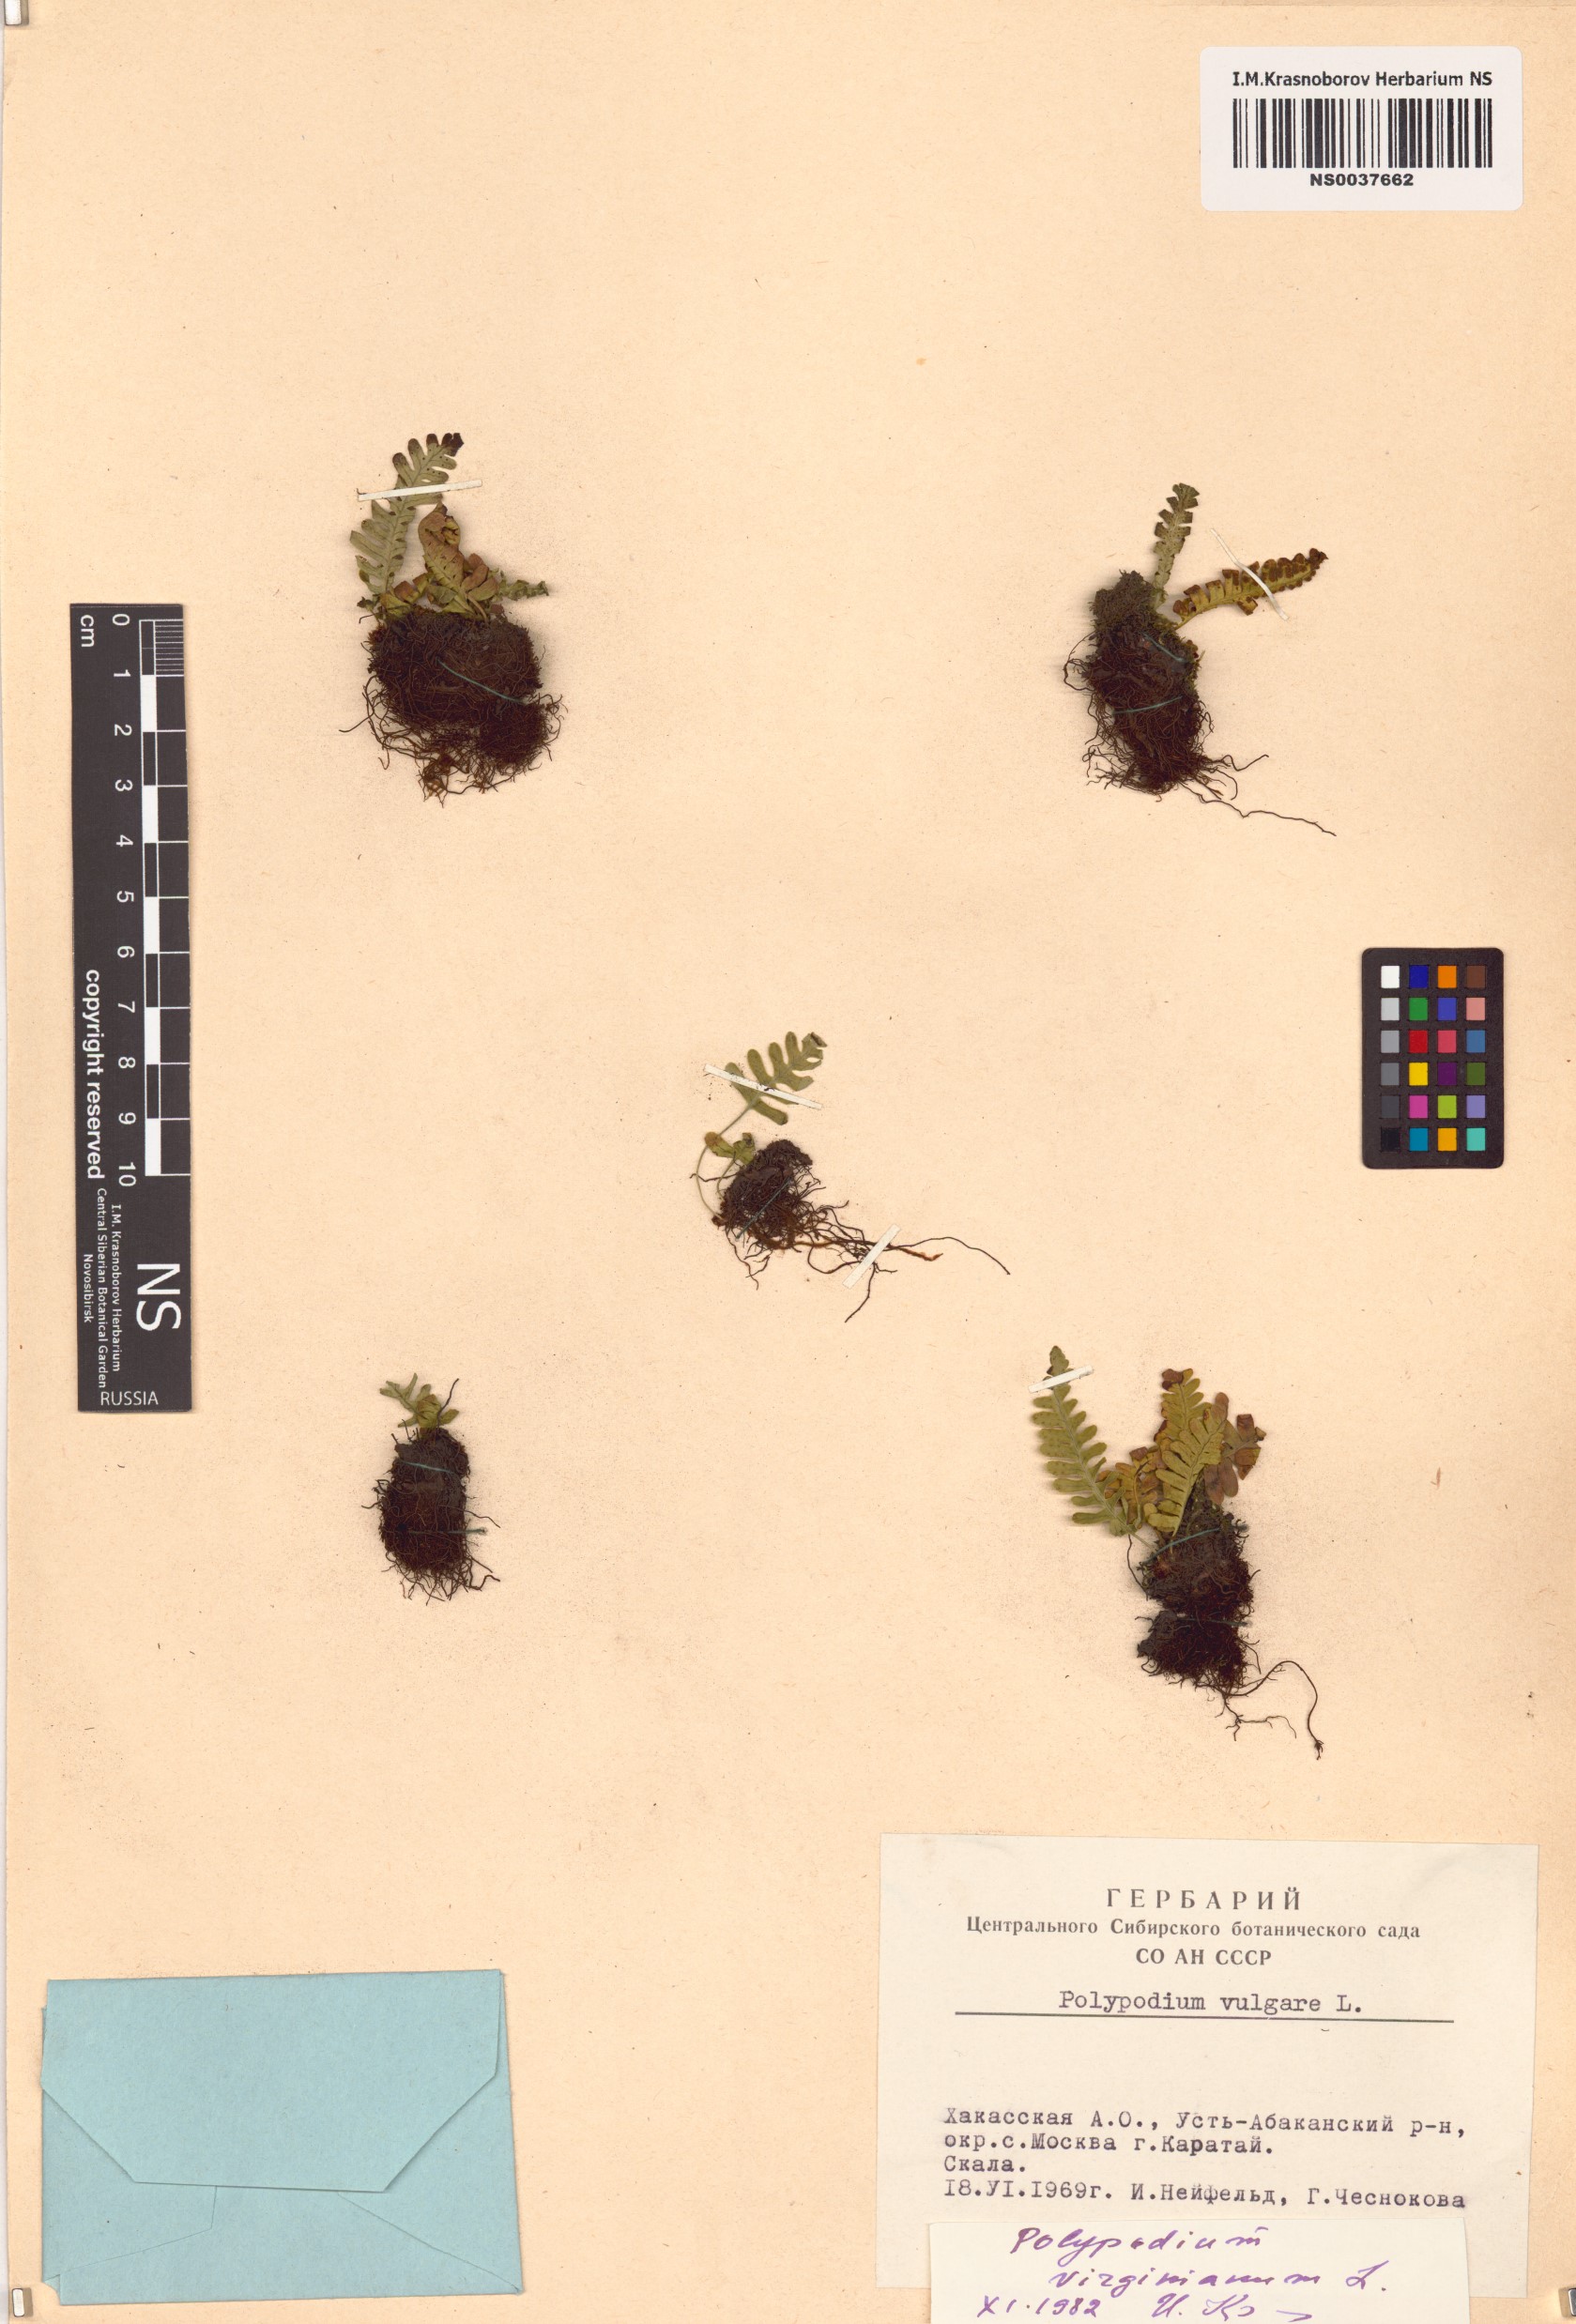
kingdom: Plantae
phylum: Tracheophyta
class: Polypodiopsida
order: Polypodiales
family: Polypodiaceae
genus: Polypodium
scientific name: Polypodium virginianum
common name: American wall fern
